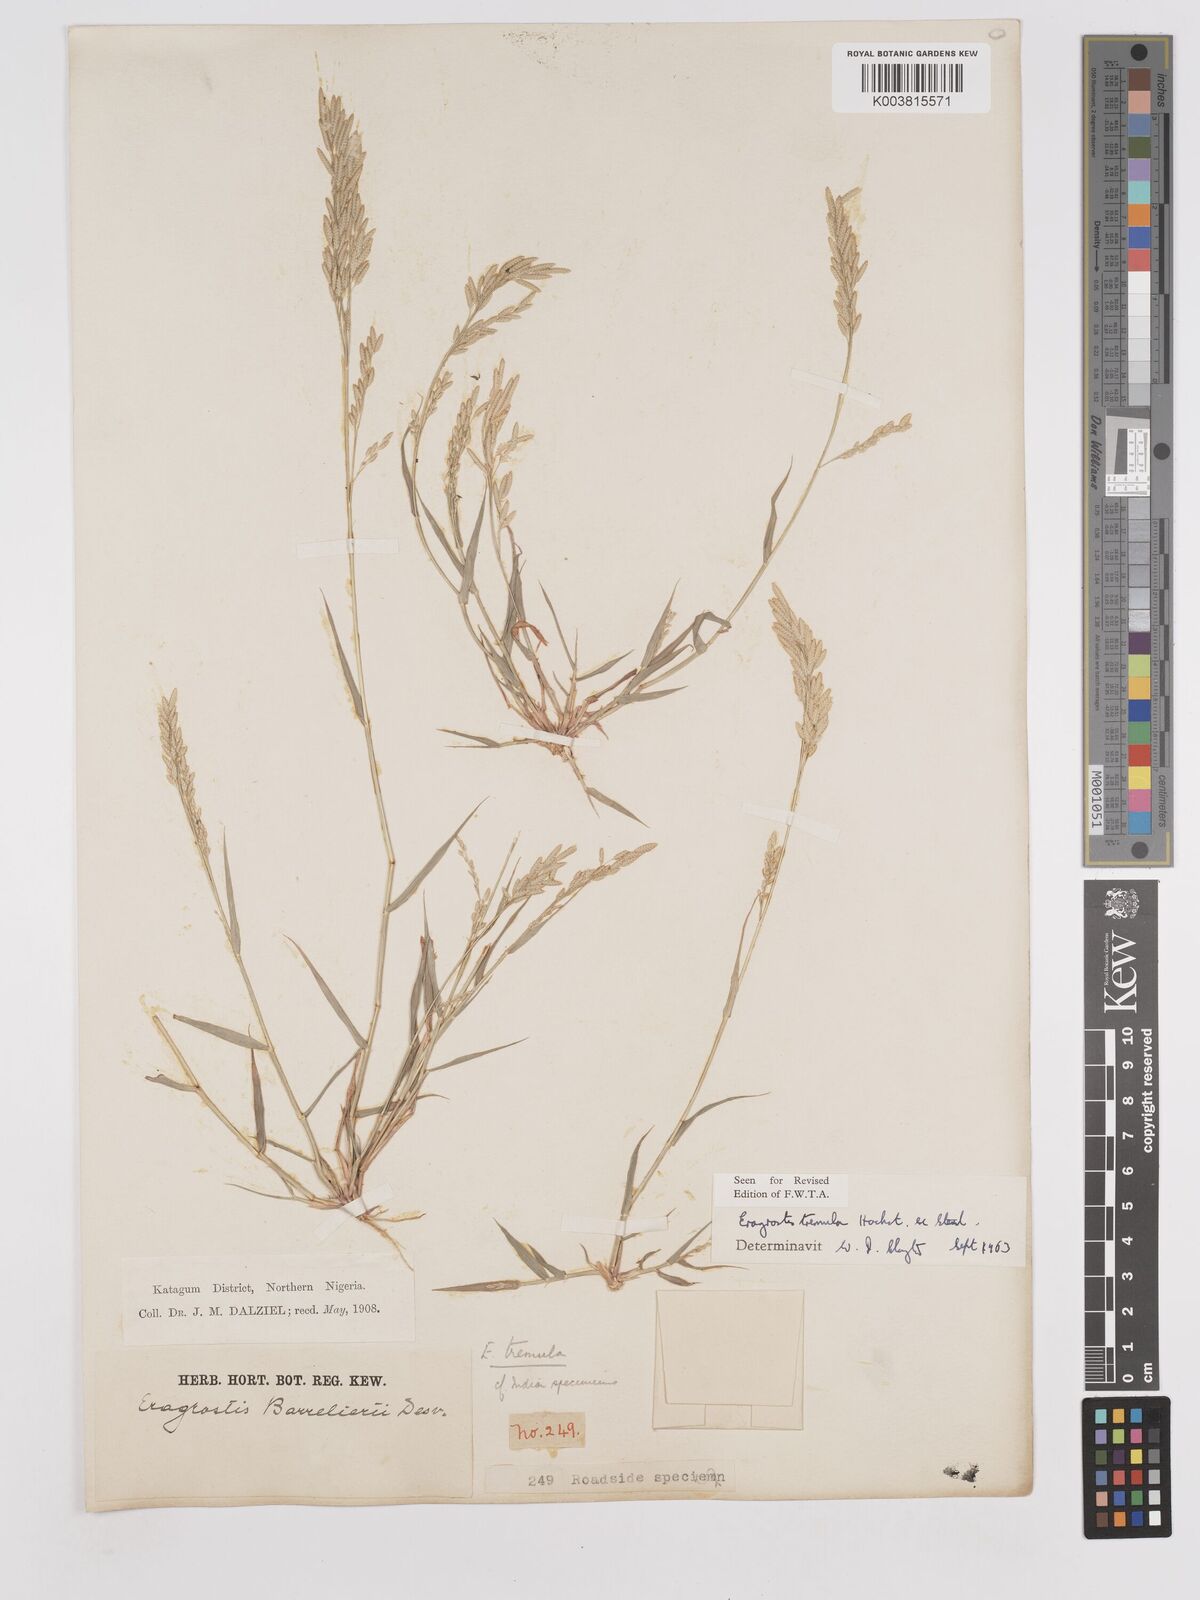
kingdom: Plantae
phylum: Tracheophyta
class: Liliopsida
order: Poales
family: Poaceae
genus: Eragrostis
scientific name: Eragrostis tremula
